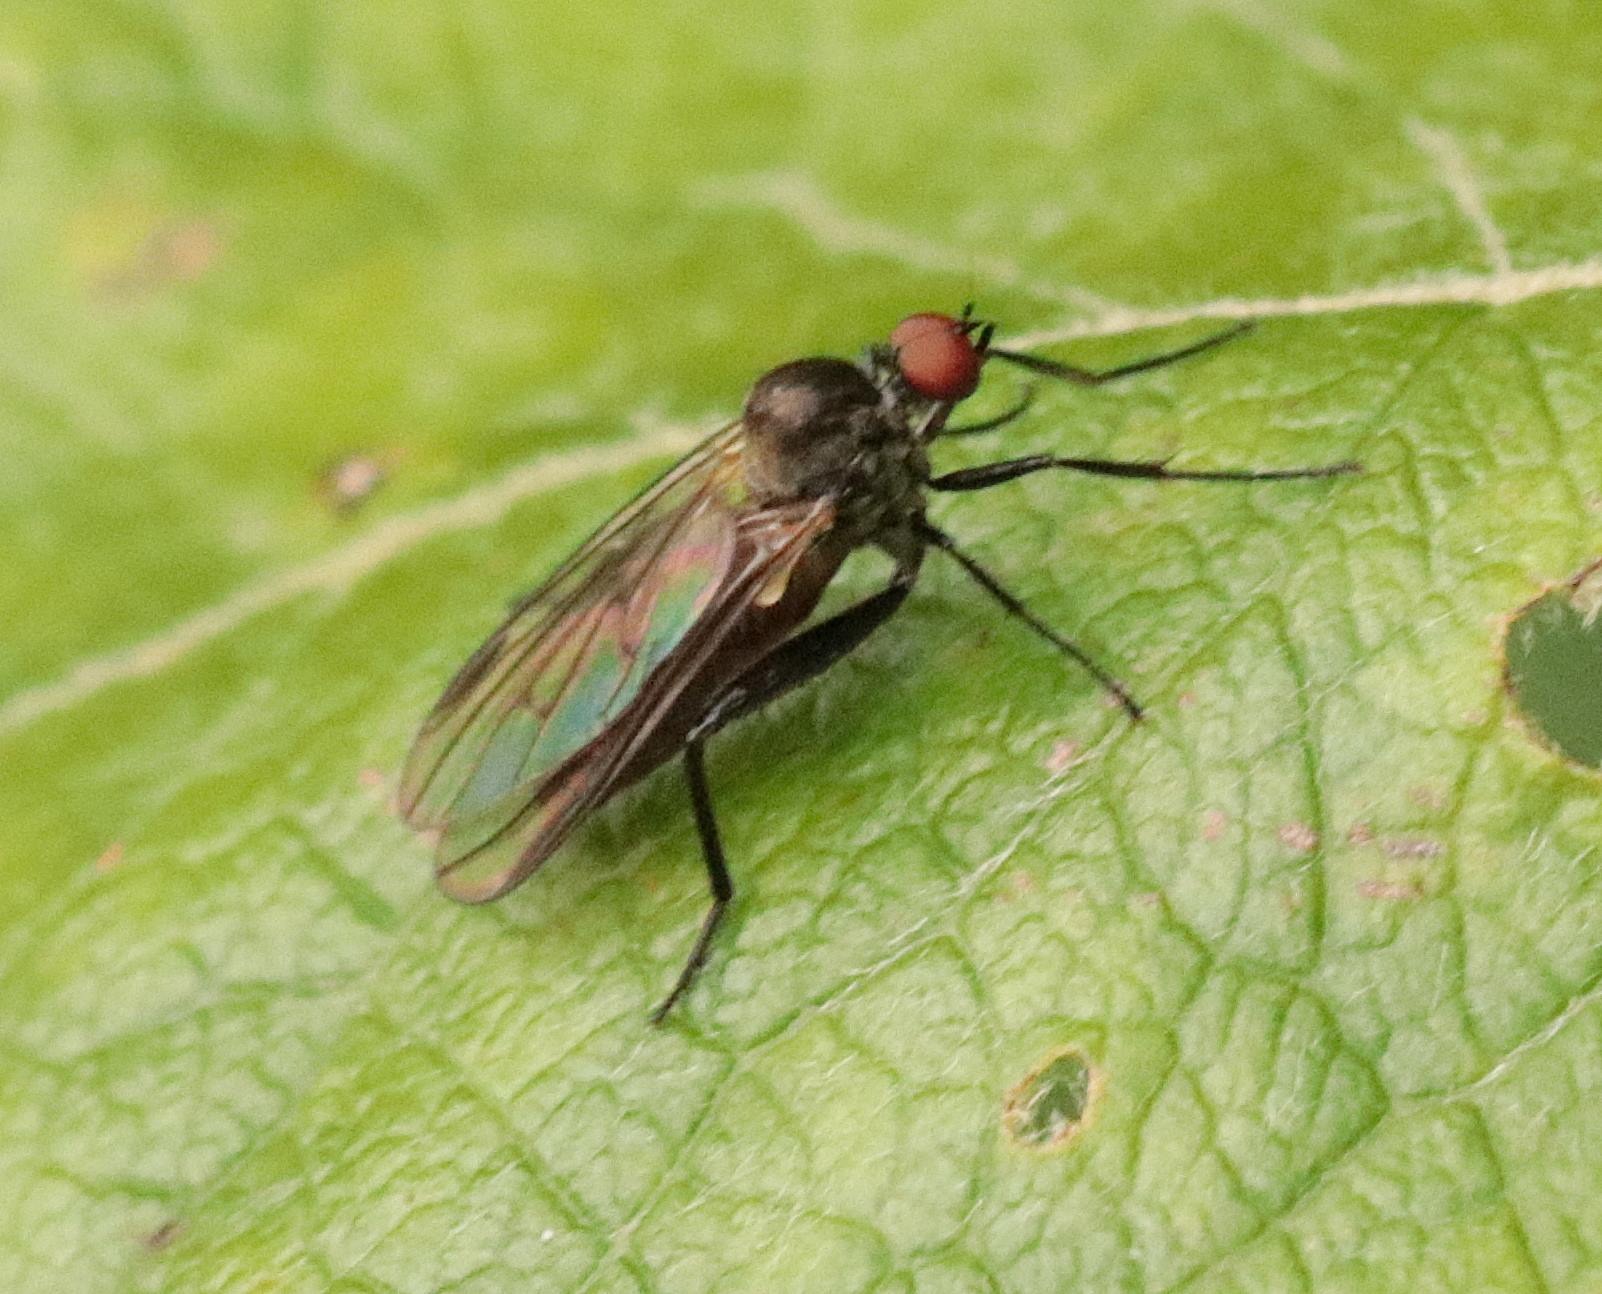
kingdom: Animalia
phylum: Arthropoda
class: Insecta
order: Diptera
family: Hybotidae
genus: Hybos
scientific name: Hybos culiciformis
